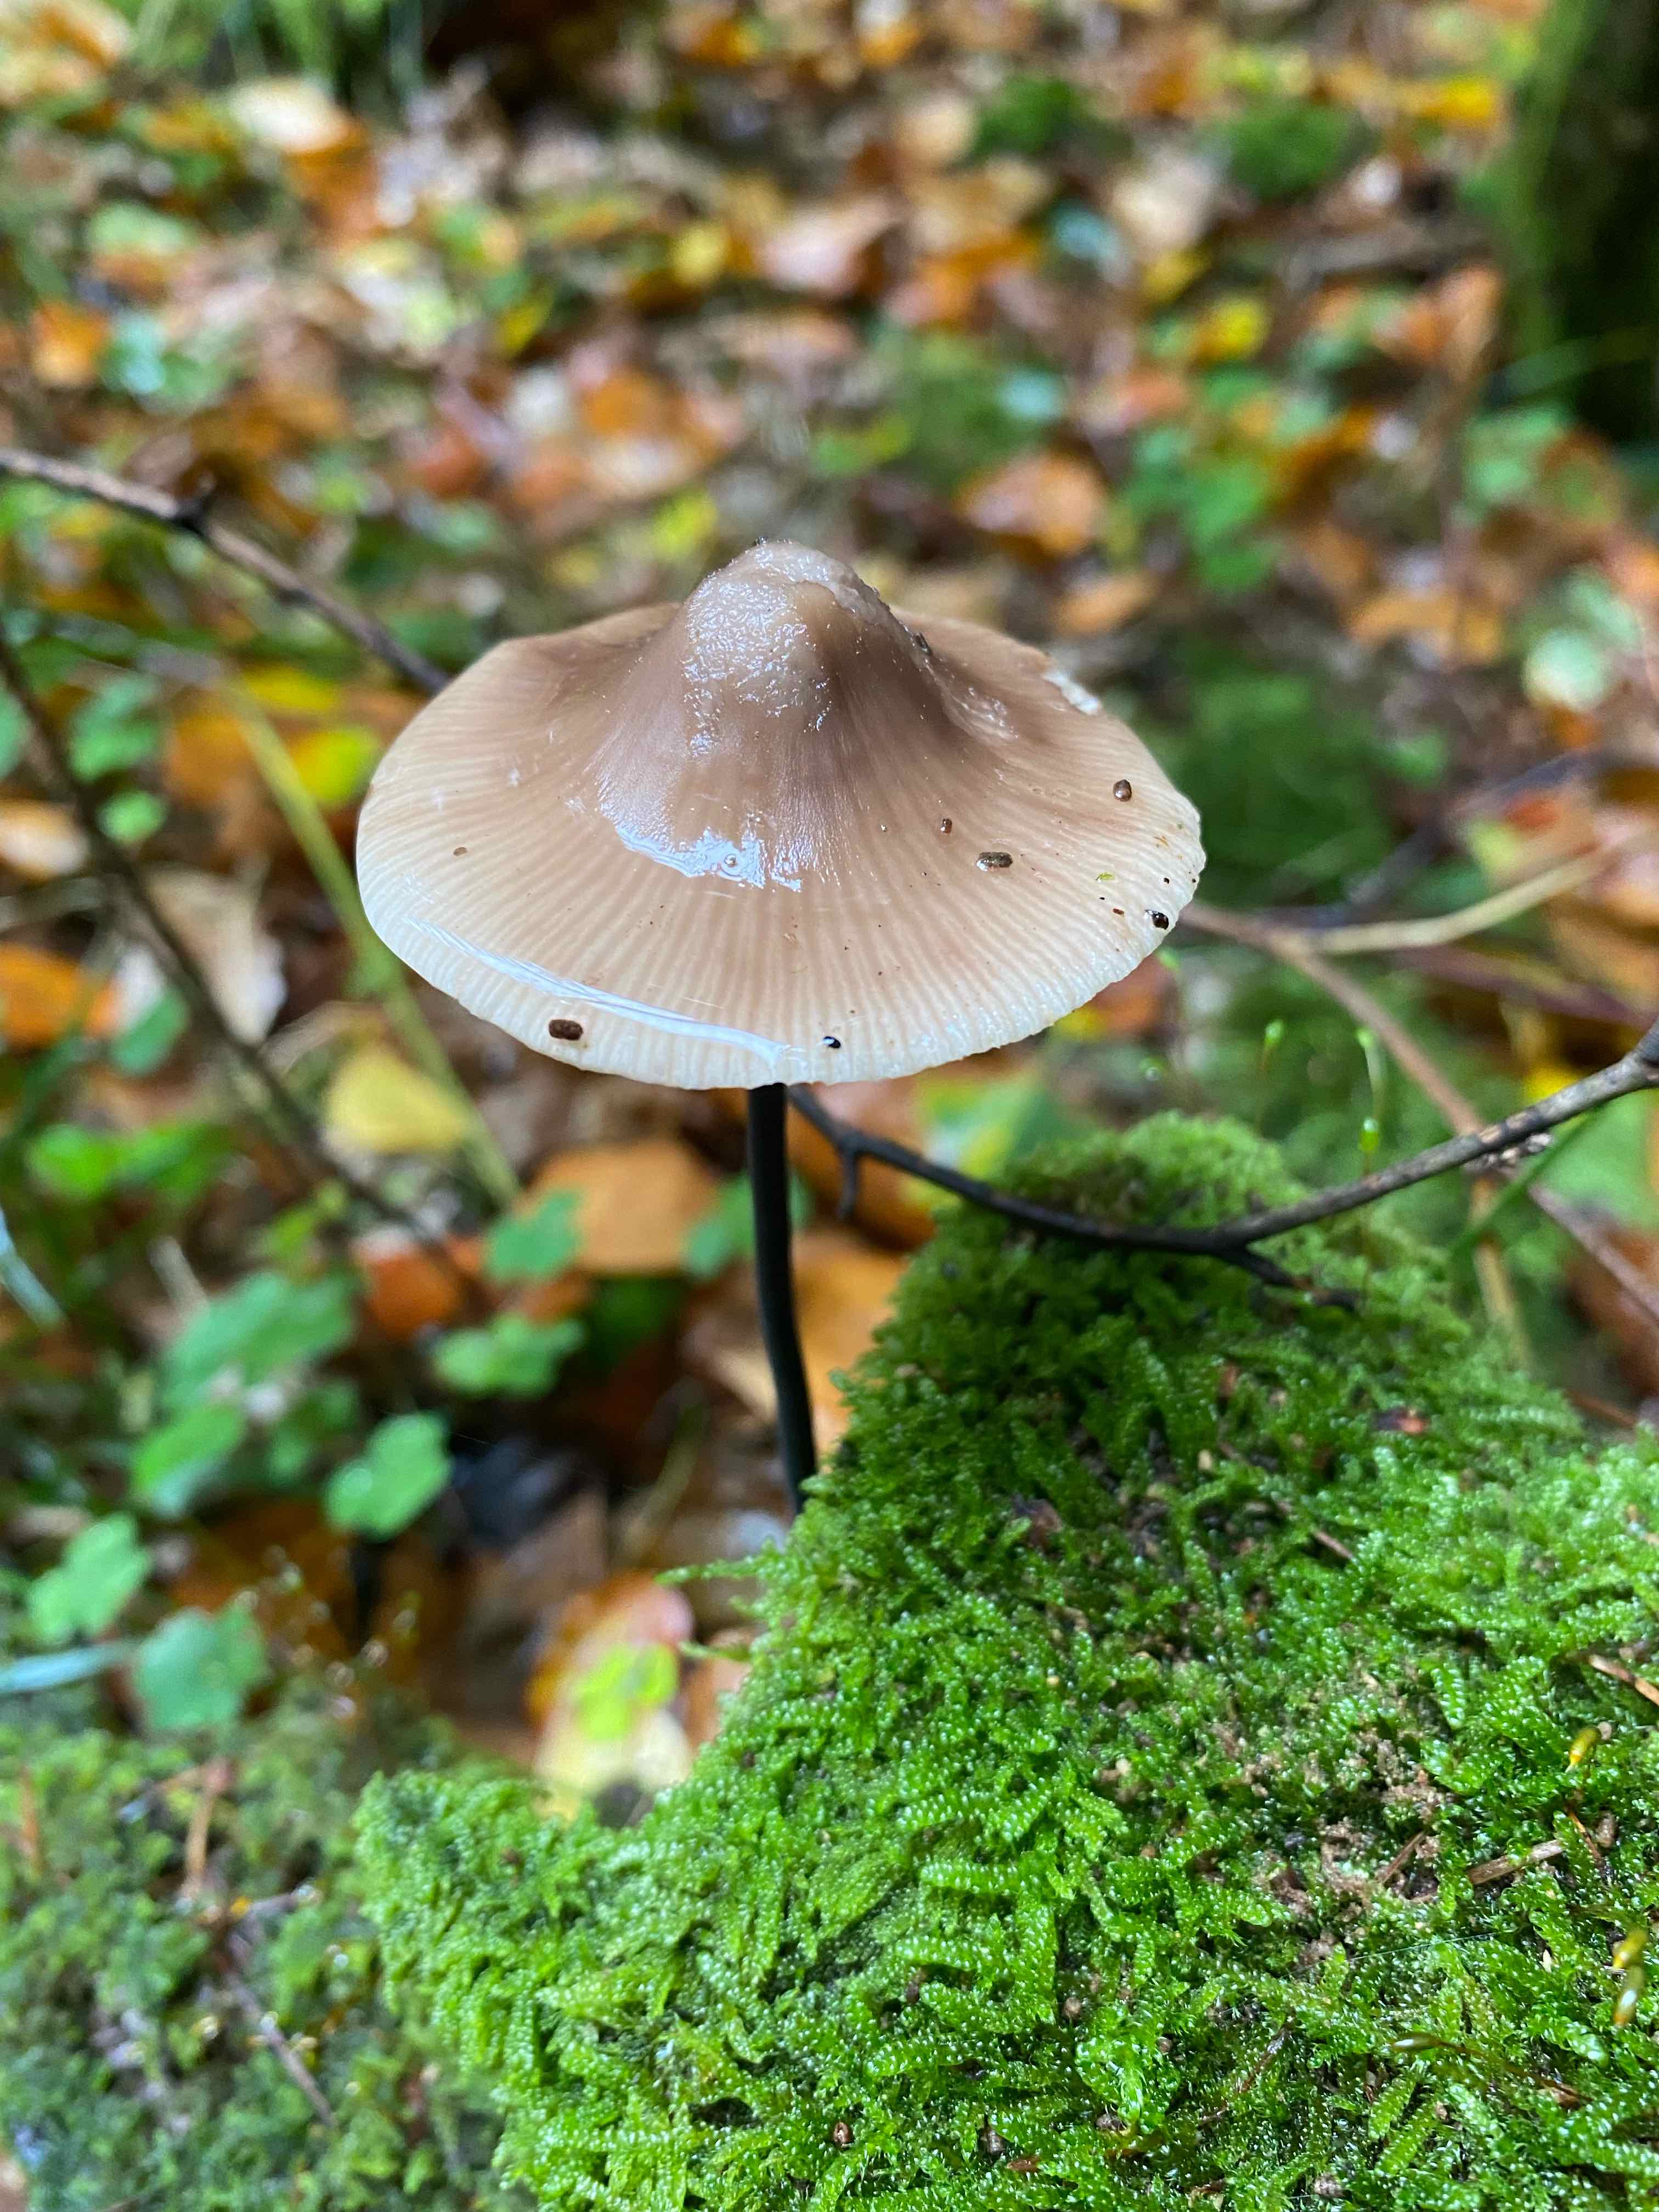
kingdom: Fungi
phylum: Basidiomycota
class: Agaricomycetes
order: Agaricales
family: Omphalotaceae
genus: Mycetinis
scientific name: Mycetinis alliaceus
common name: stor løghat
